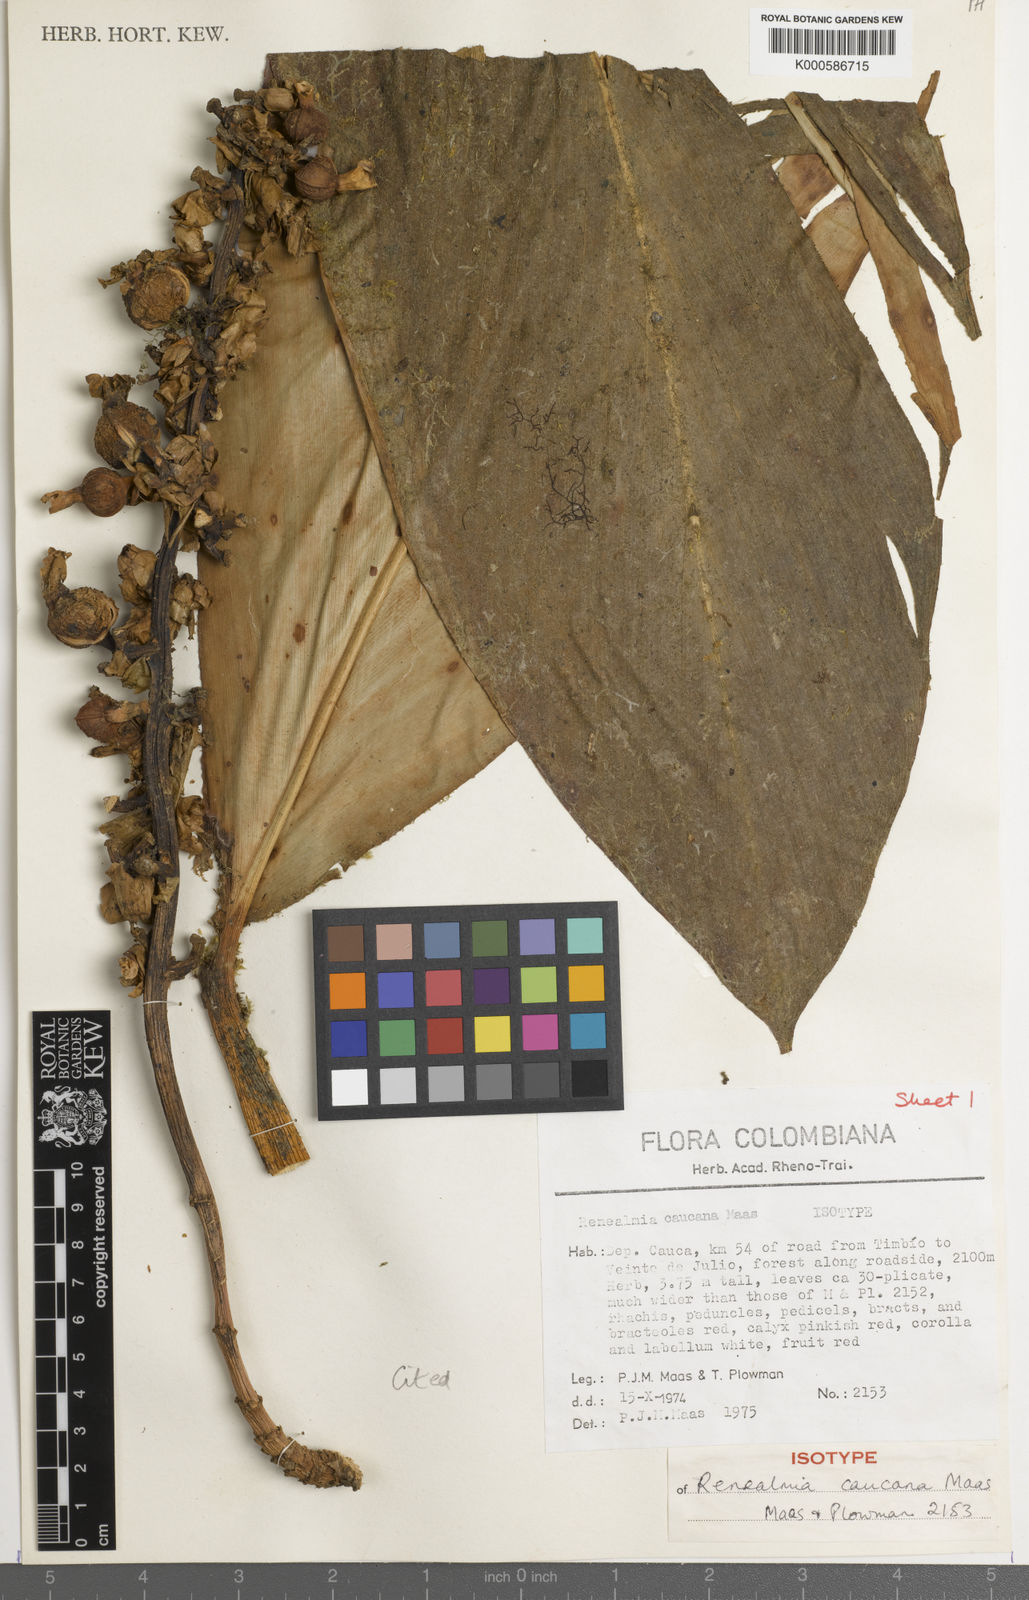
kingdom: Plantae
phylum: Tracheophyta
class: Liliopsida
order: Zingiberales
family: Zingiberaceae
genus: Renealmia
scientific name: Renealmia caucana
